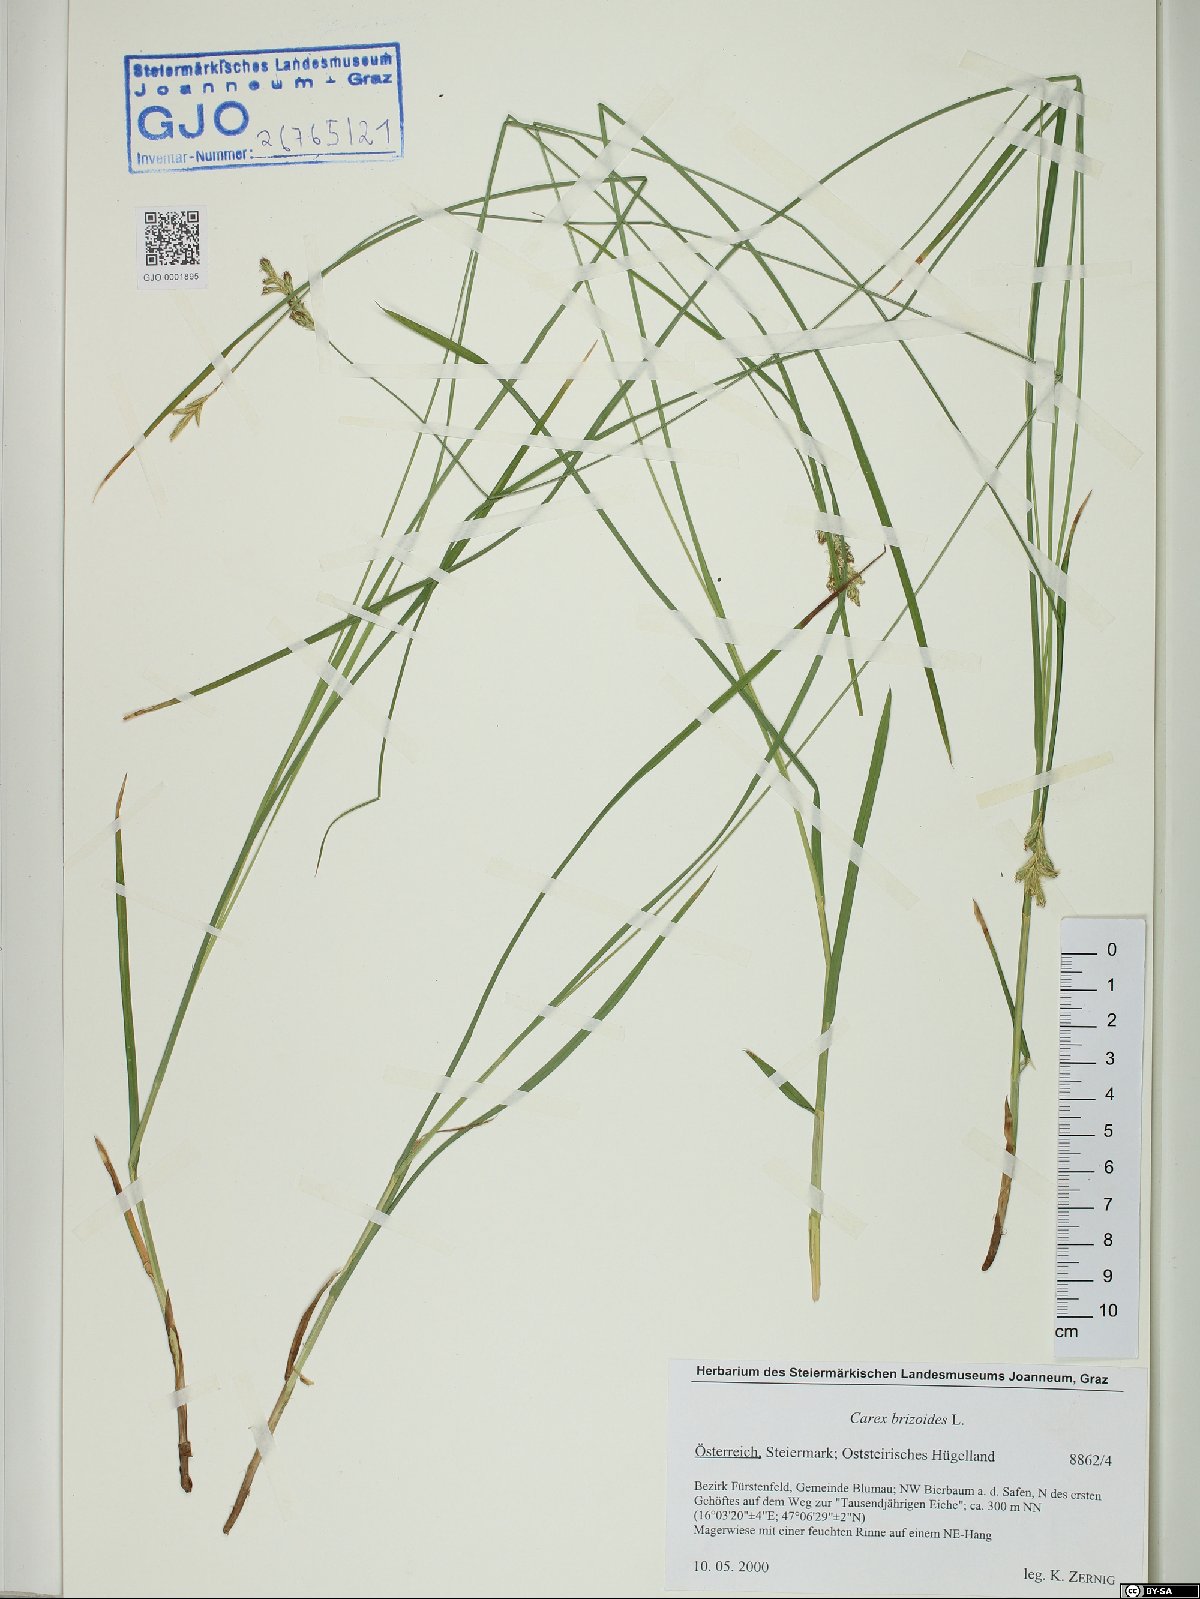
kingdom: Plantae
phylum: Tracheophyta
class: Liliopsida
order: Poales
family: Cyperaceae
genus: Carex
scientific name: Carex brizoides
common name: Quaking-grass sedge
